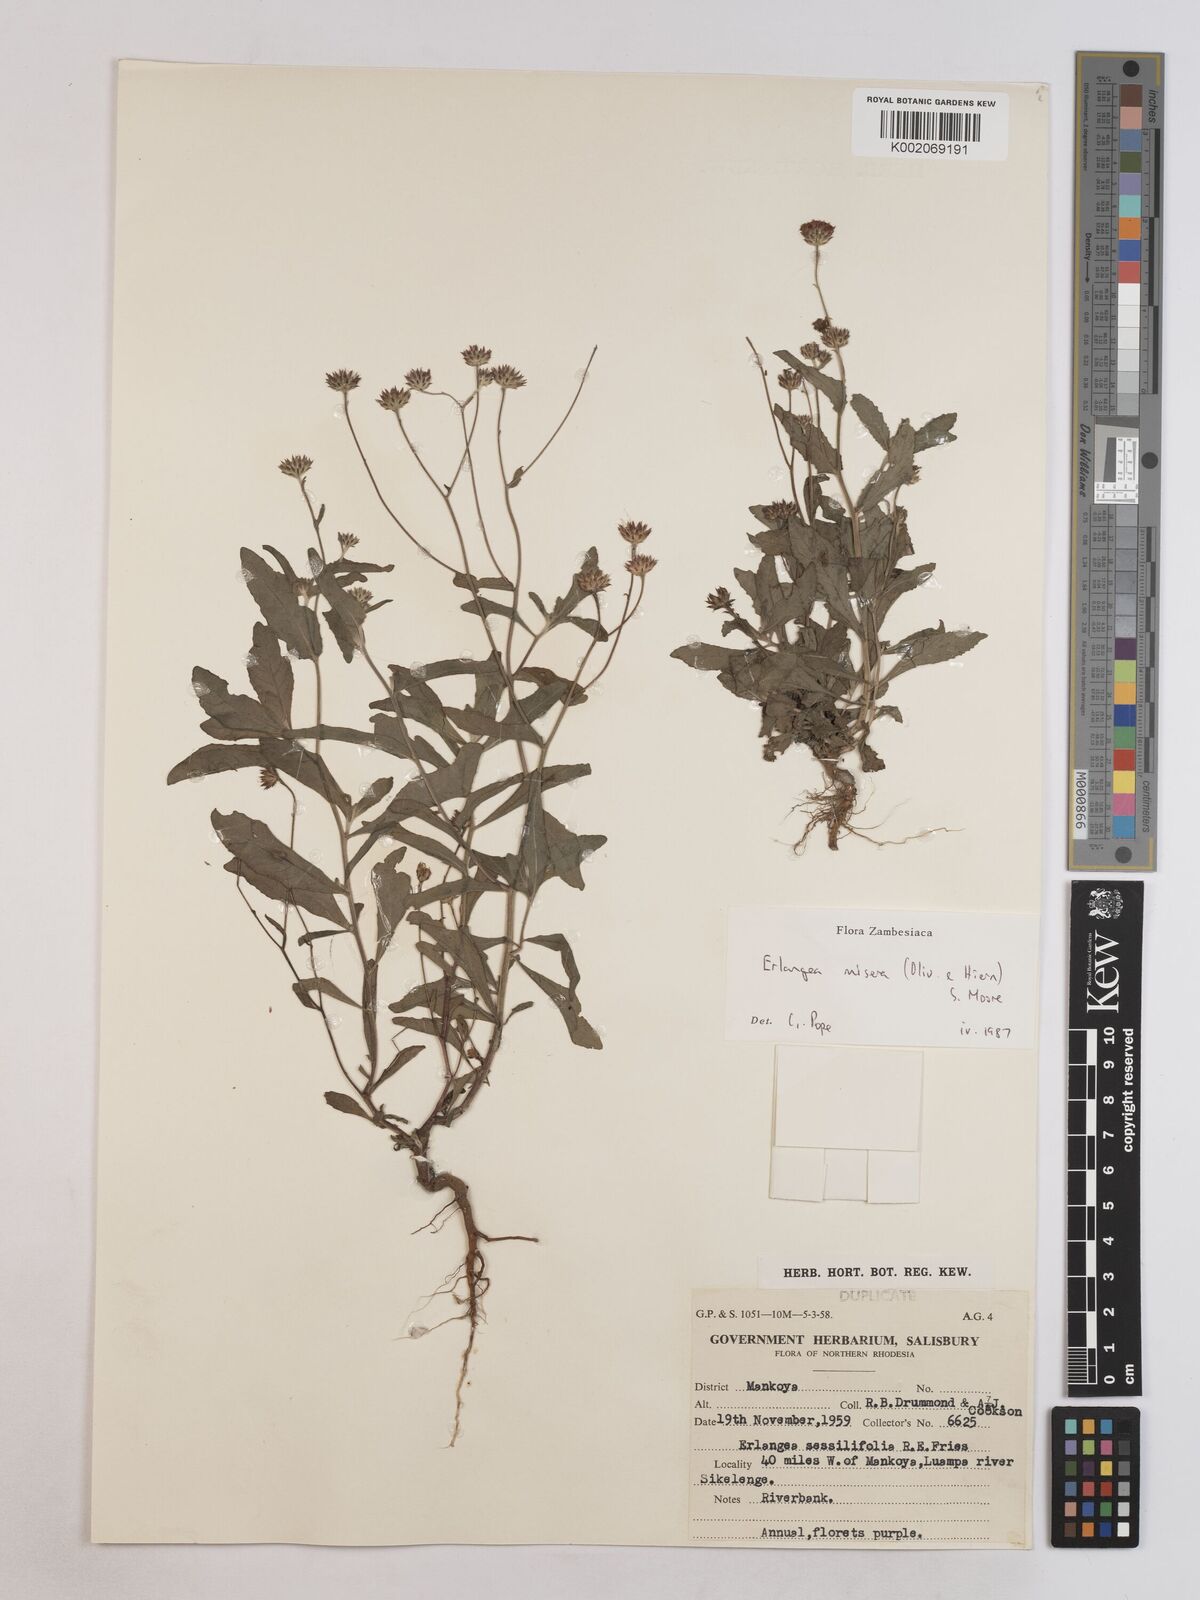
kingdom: Plantae
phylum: Tracheophyta
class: Magnoliopsida
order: Asterales
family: Asteraceae
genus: Erlangea
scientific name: Erlangea misera
